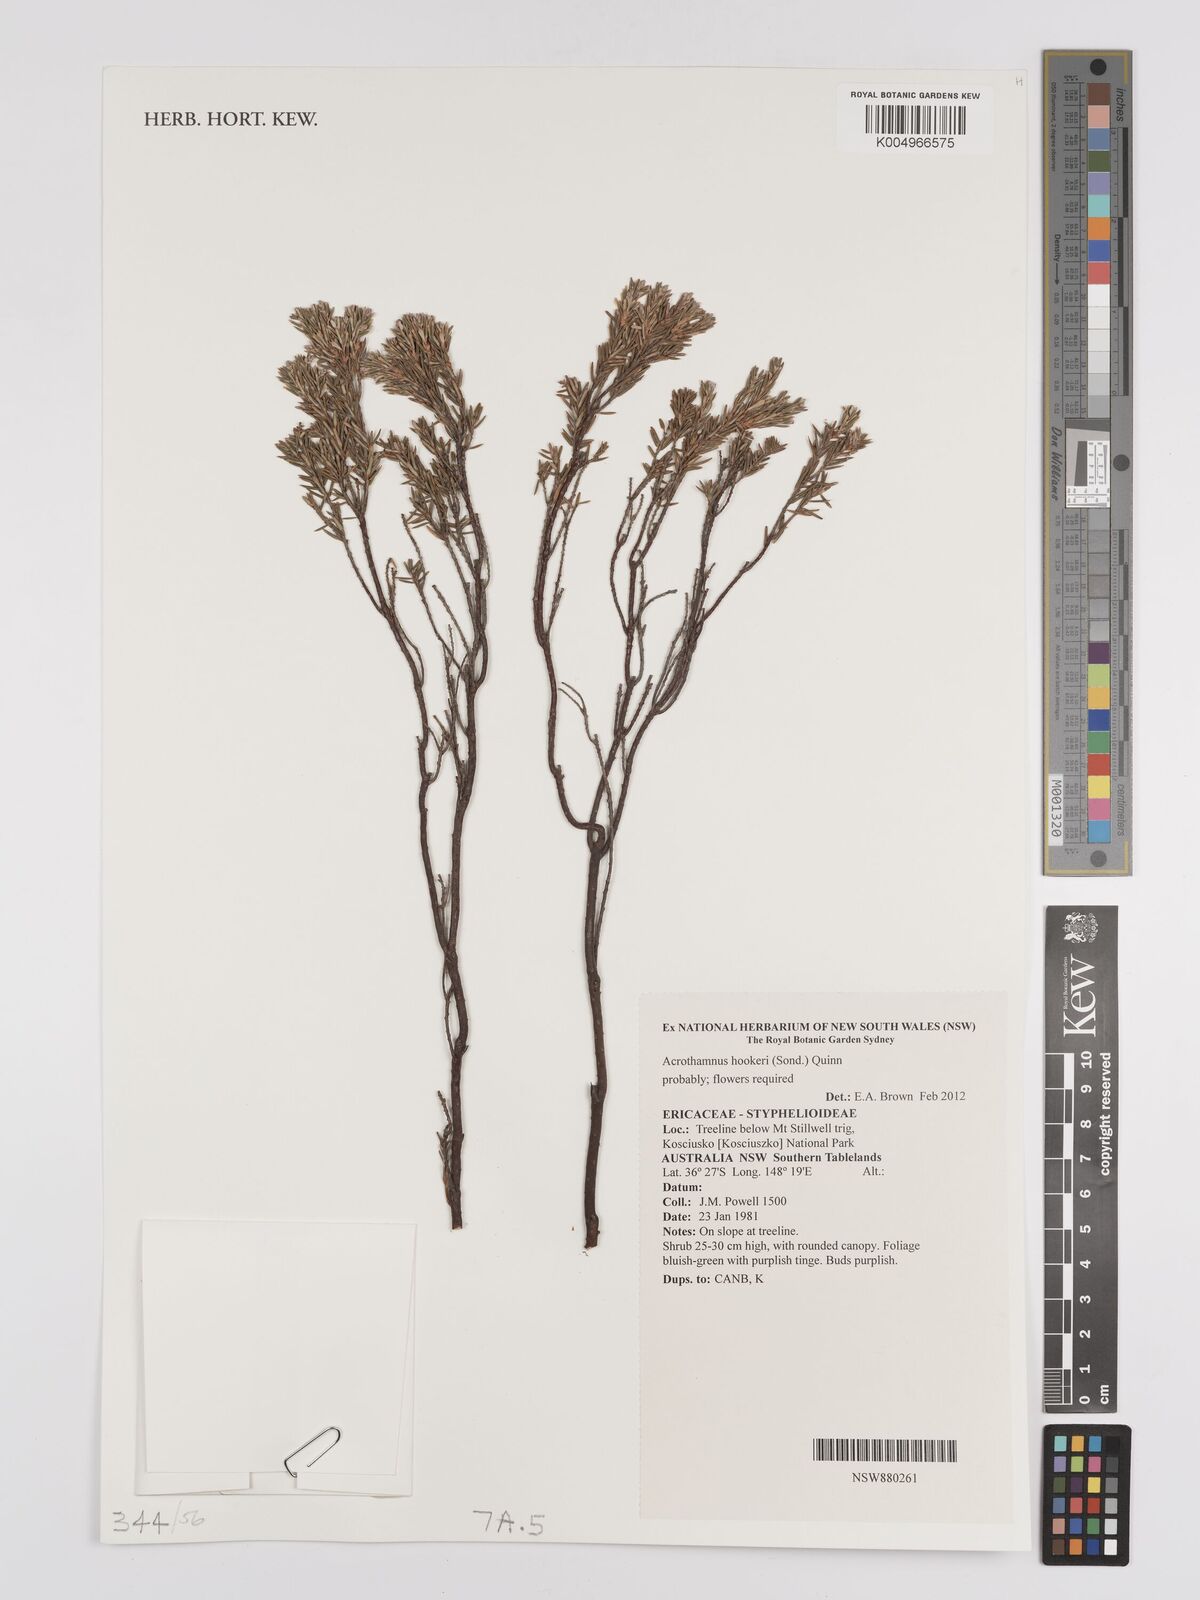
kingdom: Plantae
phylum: Tracheophyta
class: Magnoliopsida
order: Ericales
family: Ericaceae
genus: Acrothamnus
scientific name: Acrothamnus hookeri
